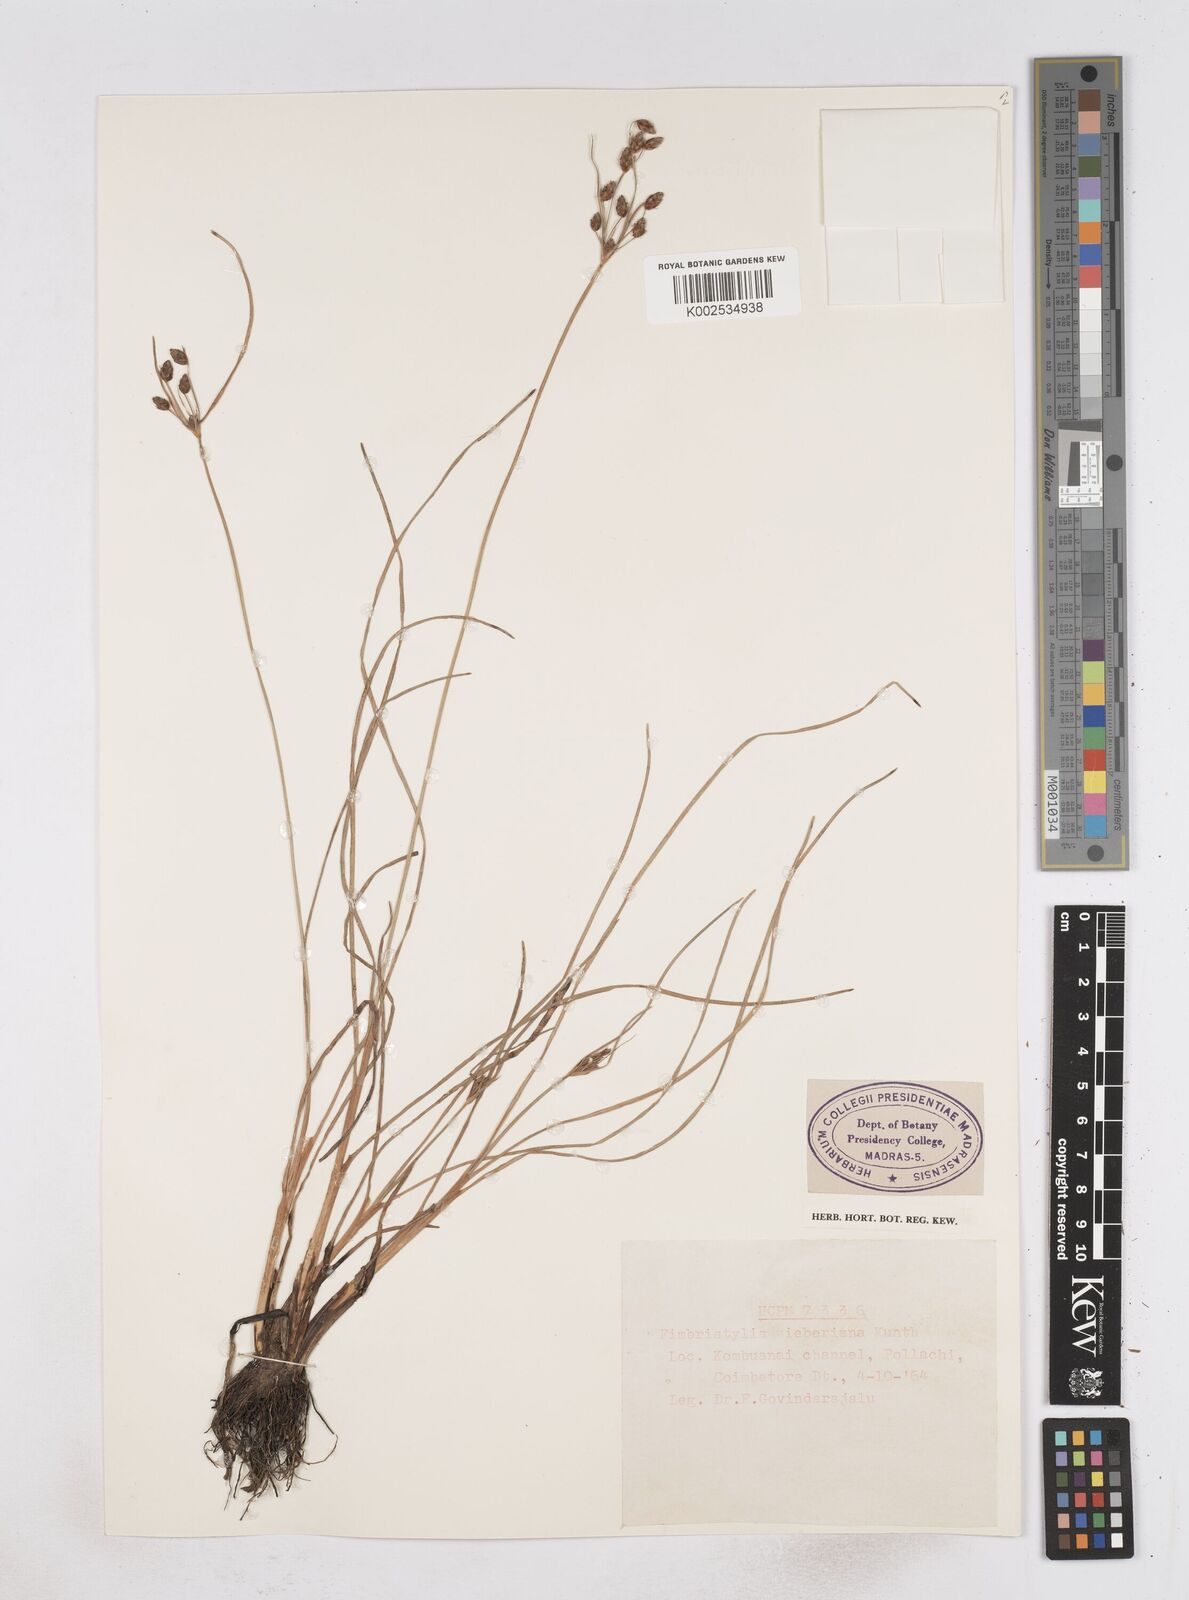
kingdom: Plantae
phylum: Tracheophyta
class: Liliopsida
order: Poales
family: Cyperaceae
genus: Fimbristylis
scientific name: Fimbristylis ferruginea
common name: West indian fimbry
